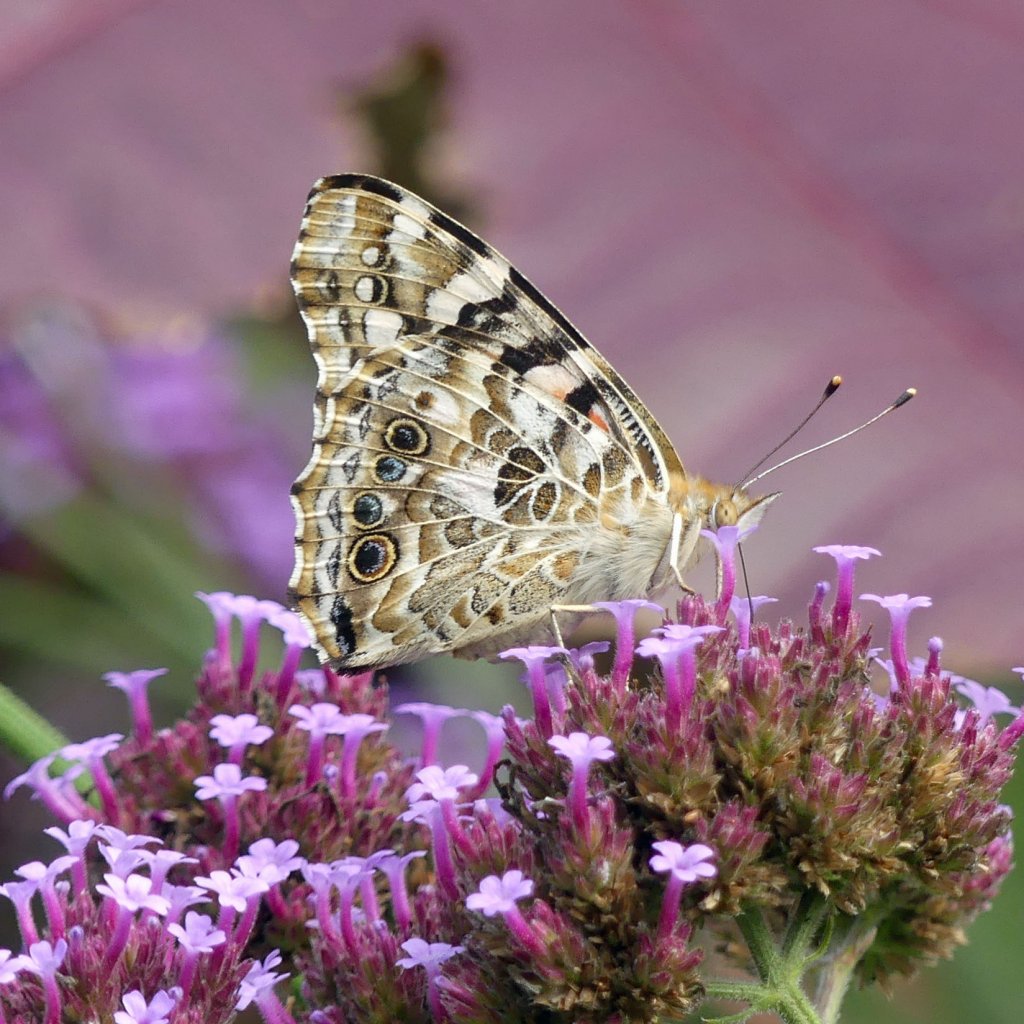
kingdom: Animalia
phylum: Arthropoda
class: Insecta
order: Lepidoptera
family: Nymphalidae
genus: Vanessa
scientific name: Vanessa cardui
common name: Painted Lady
